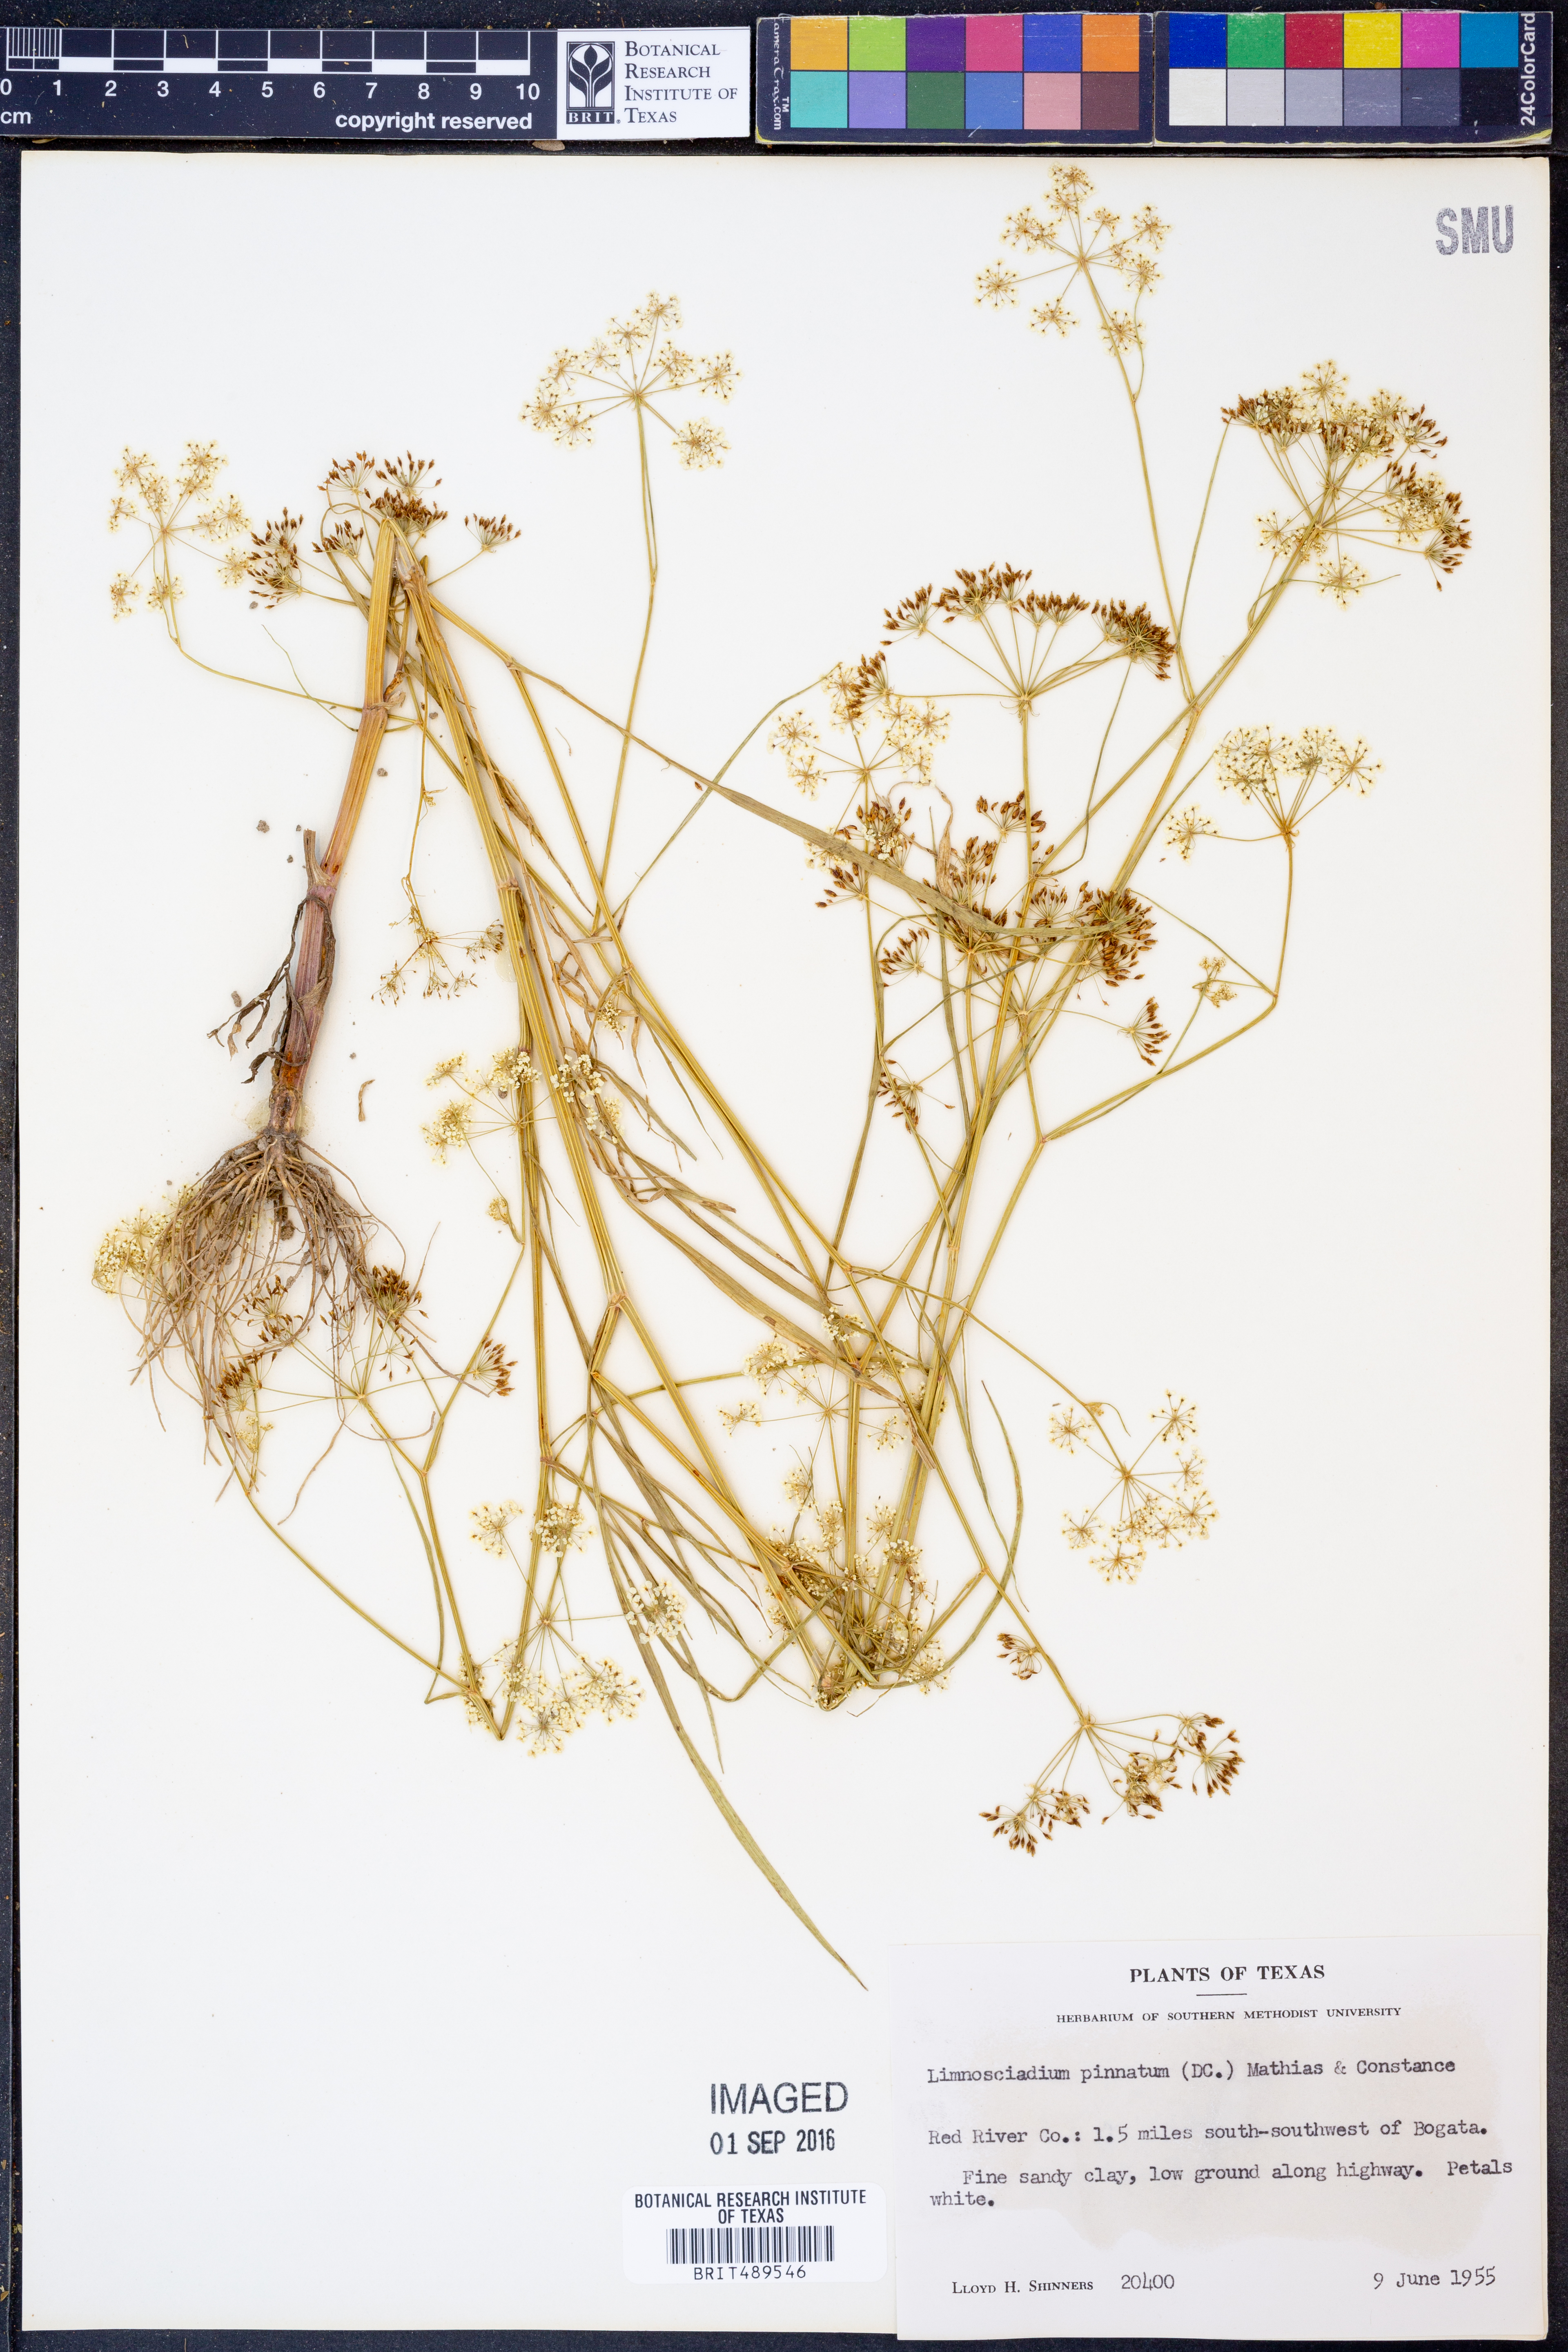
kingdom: Plantae
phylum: Tracheophyta
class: Magnoliopsida
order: Apiales
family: Apiaceae
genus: Limnosciadium
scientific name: Limnosciadium pinnatum
